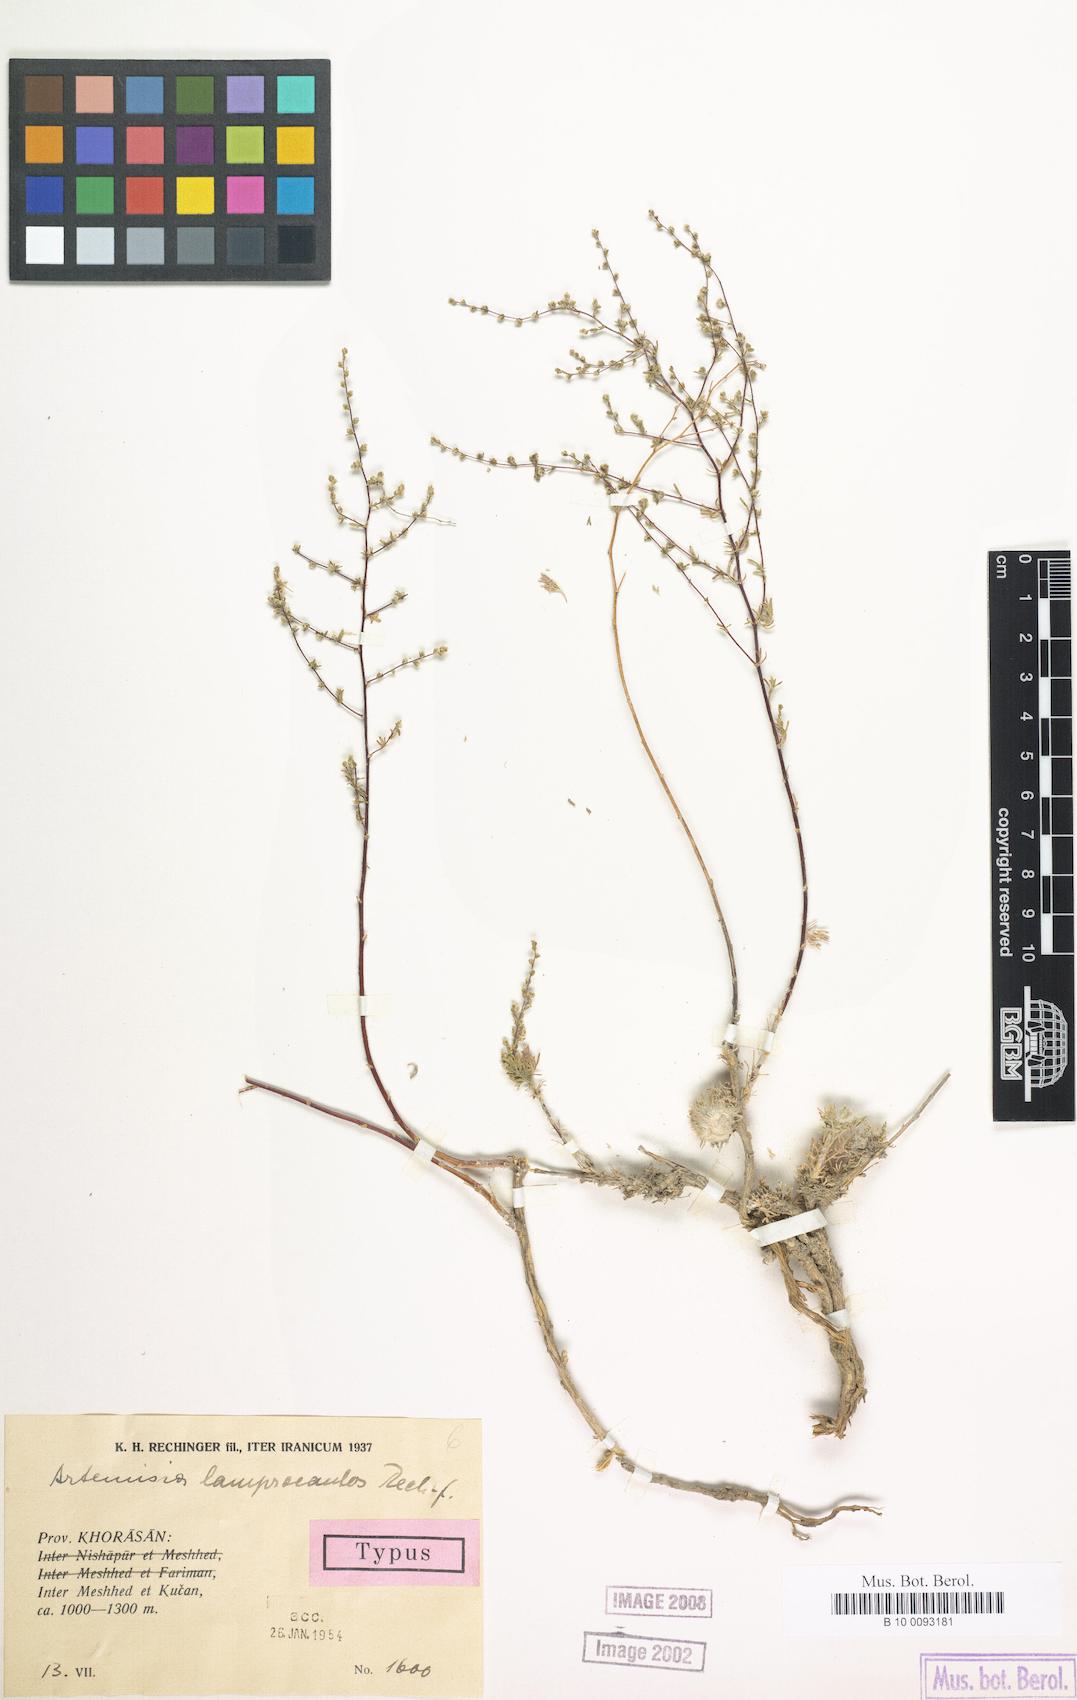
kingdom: Plantae
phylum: Tracheophyta
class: Magnoliopsida
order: Asterales
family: Asteraceae
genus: Artemisia
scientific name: Artemisia turanica
